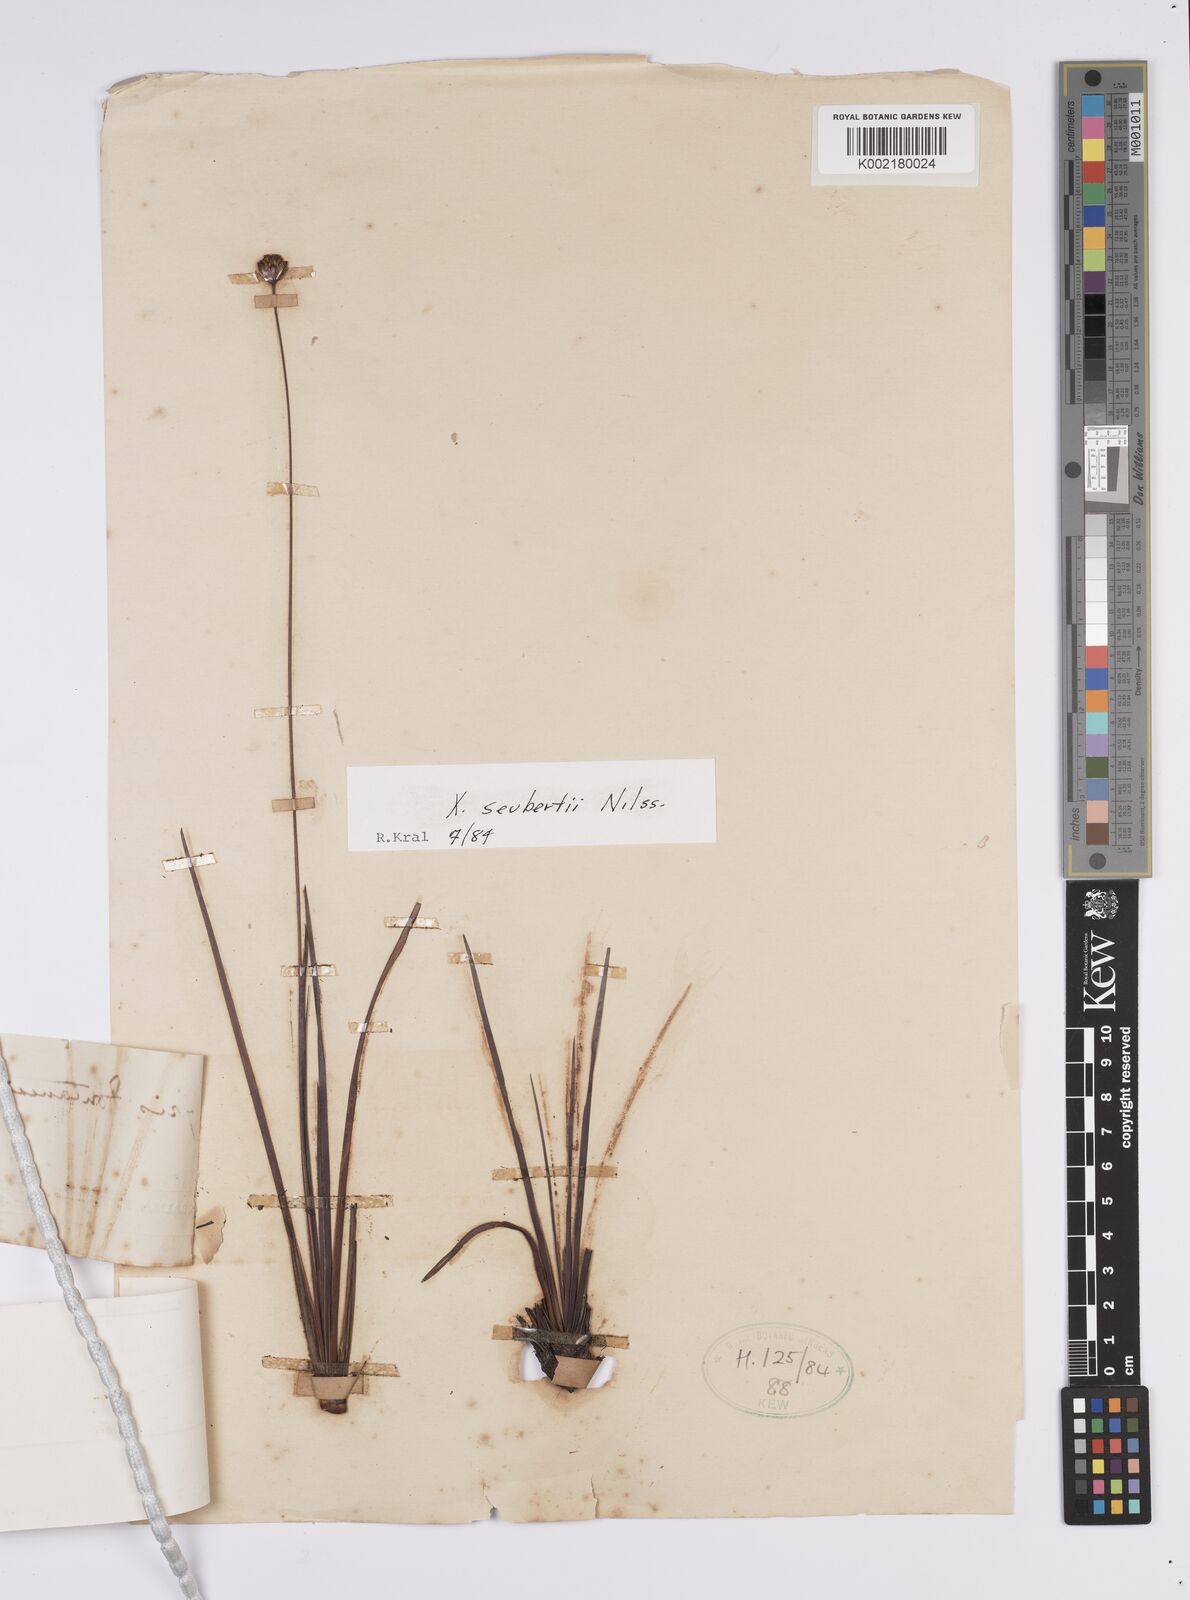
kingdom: Plantae
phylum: Tracheophyta
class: Liliopsida
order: Poales
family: Xyridaceae
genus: Xyris
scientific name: Xyris seubertii
